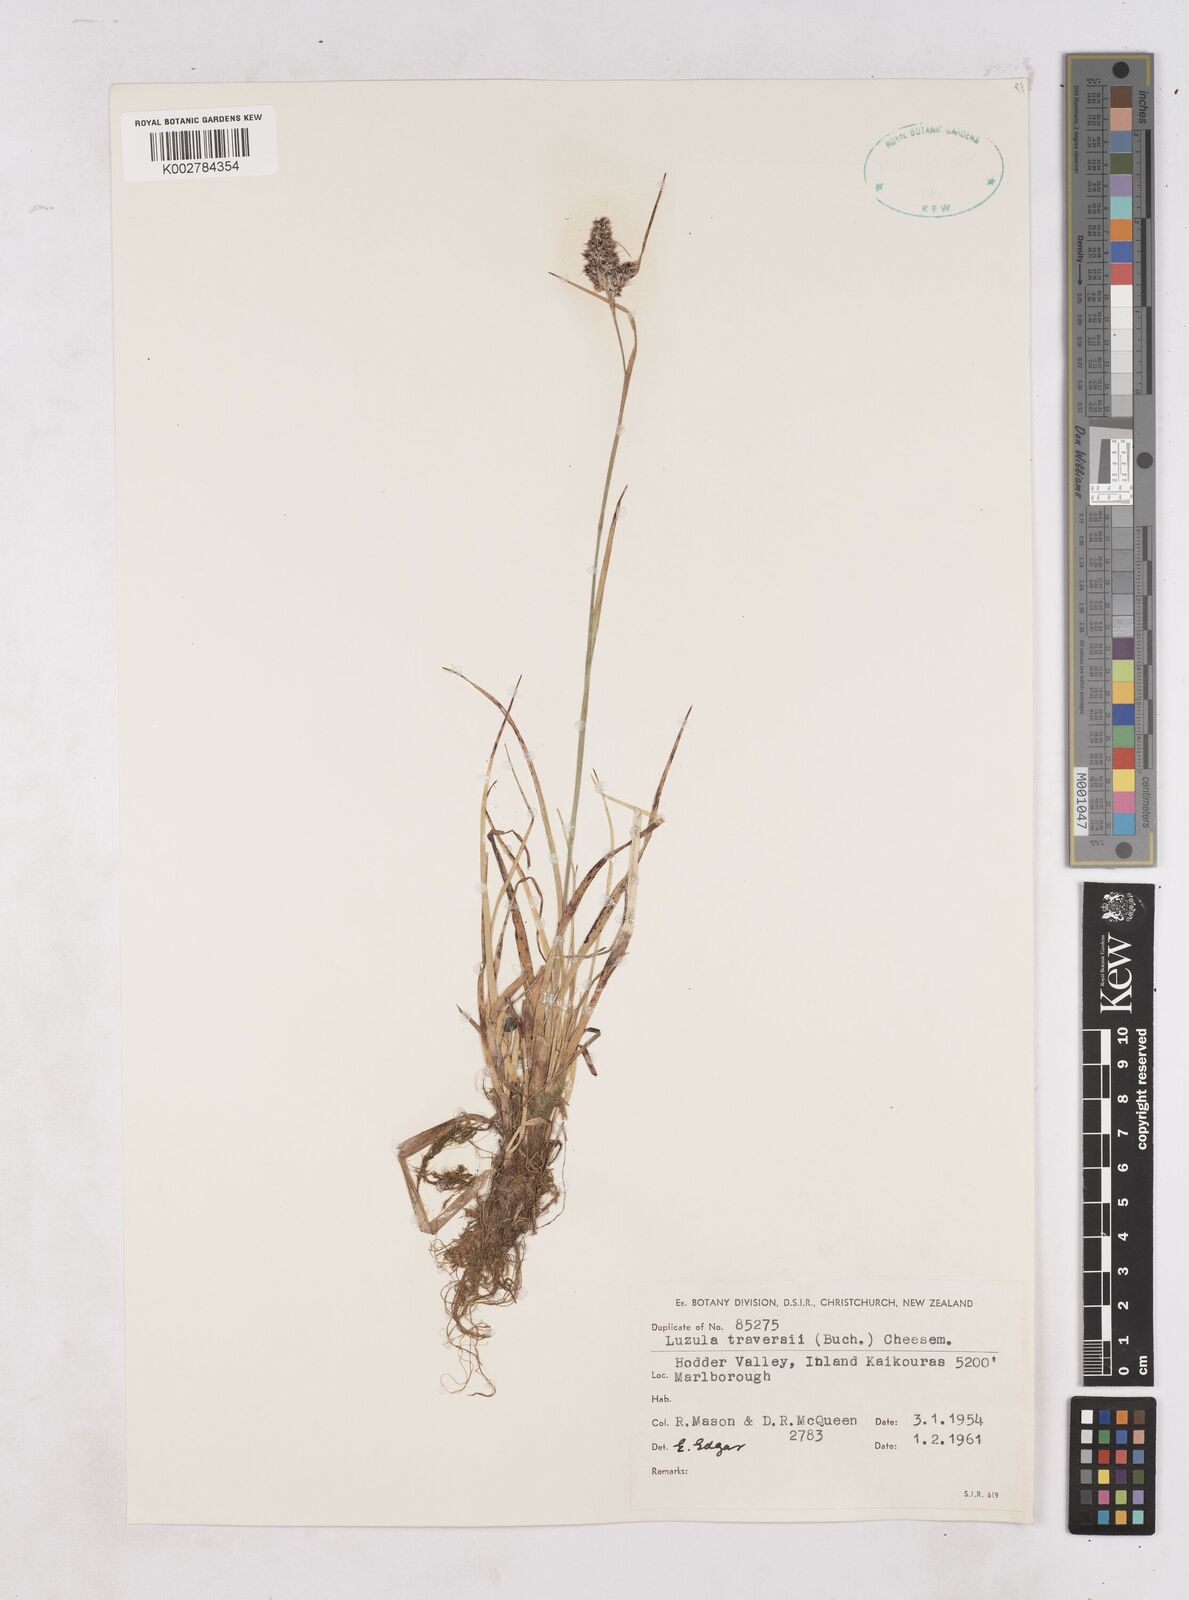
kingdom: Plantae
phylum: Tracheophyta
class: Liliopsida
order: Poales
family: Juncaceae
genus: Luzula
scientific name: Luzula traversii
